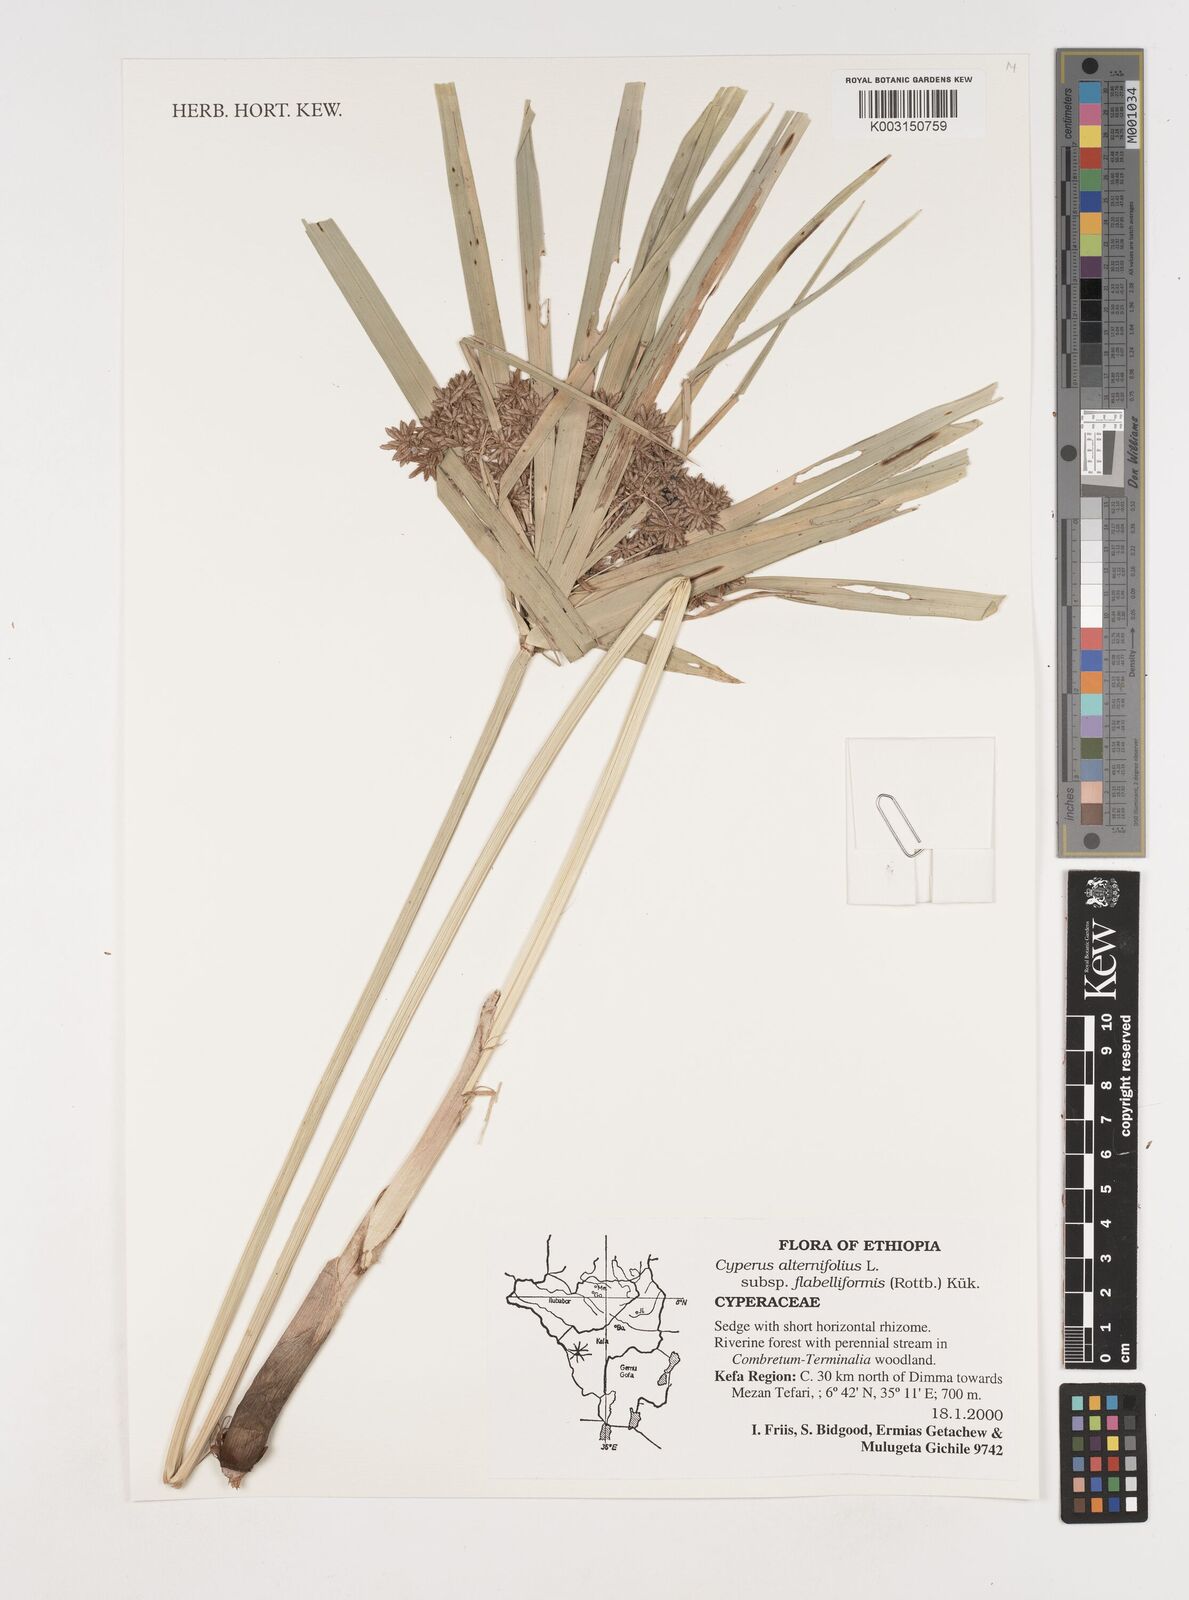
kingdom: Plantae
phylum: Tracheophyta
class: Liliopsida
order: Poales
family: Cyperaceae
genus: Cyperus
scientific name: Cyperus alternifolius
